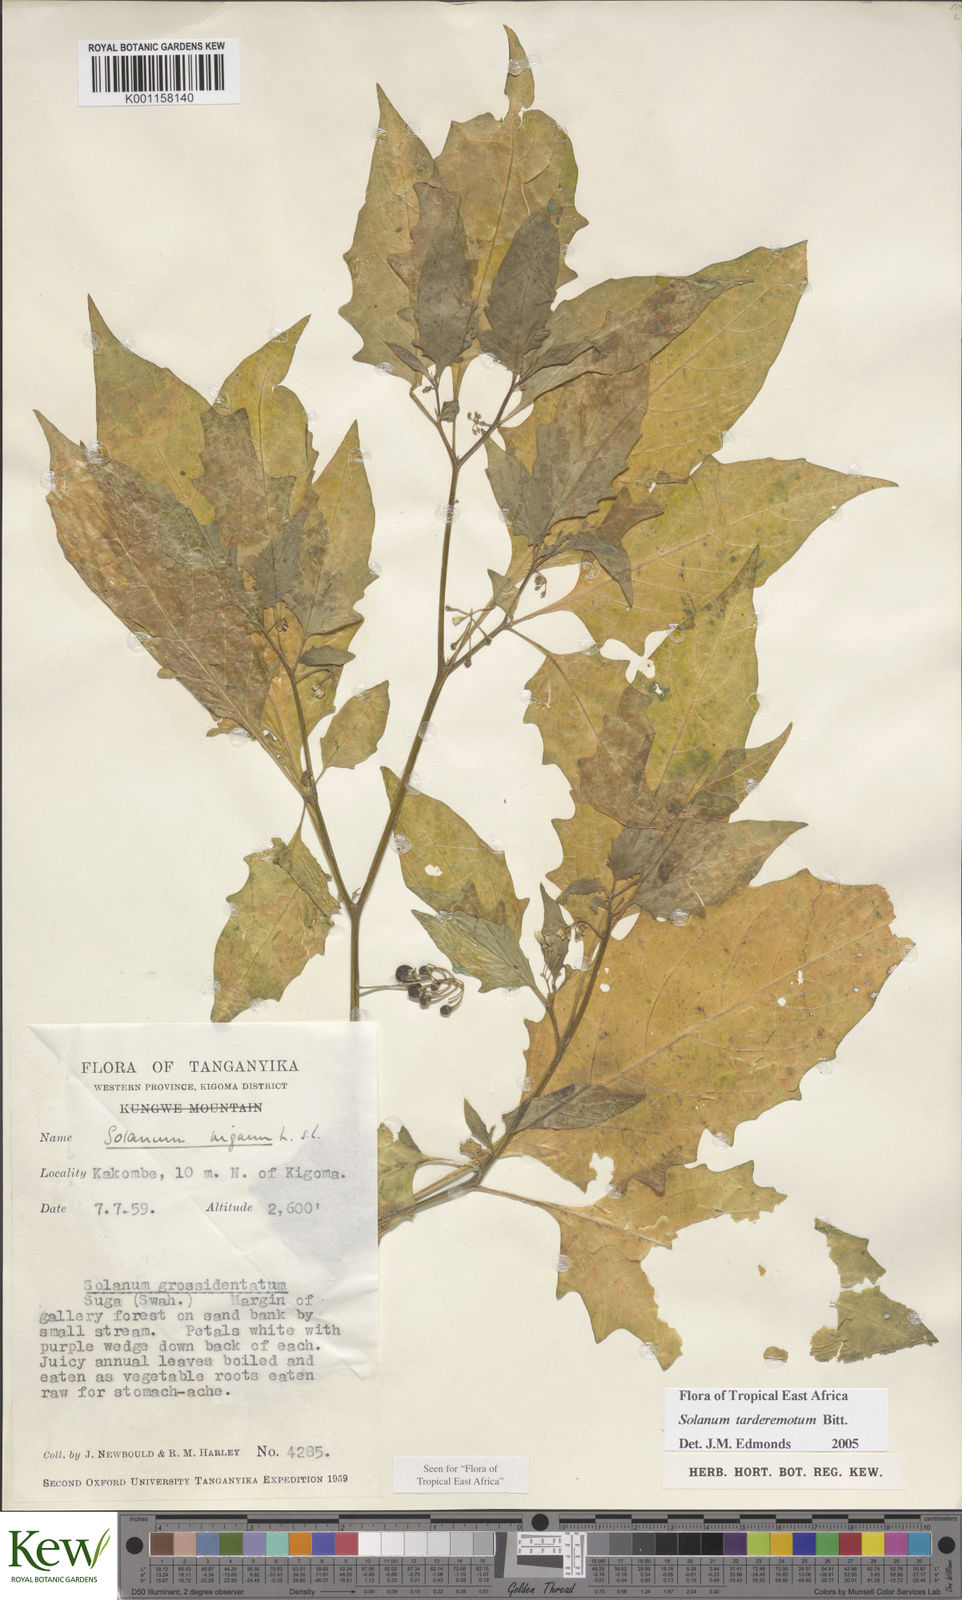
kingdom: Plantae
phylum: Tracheophyta
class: Magnoliopsida
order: Solanales
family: Solanaceae
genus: Solanum
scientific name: Solanum tarderemotum
